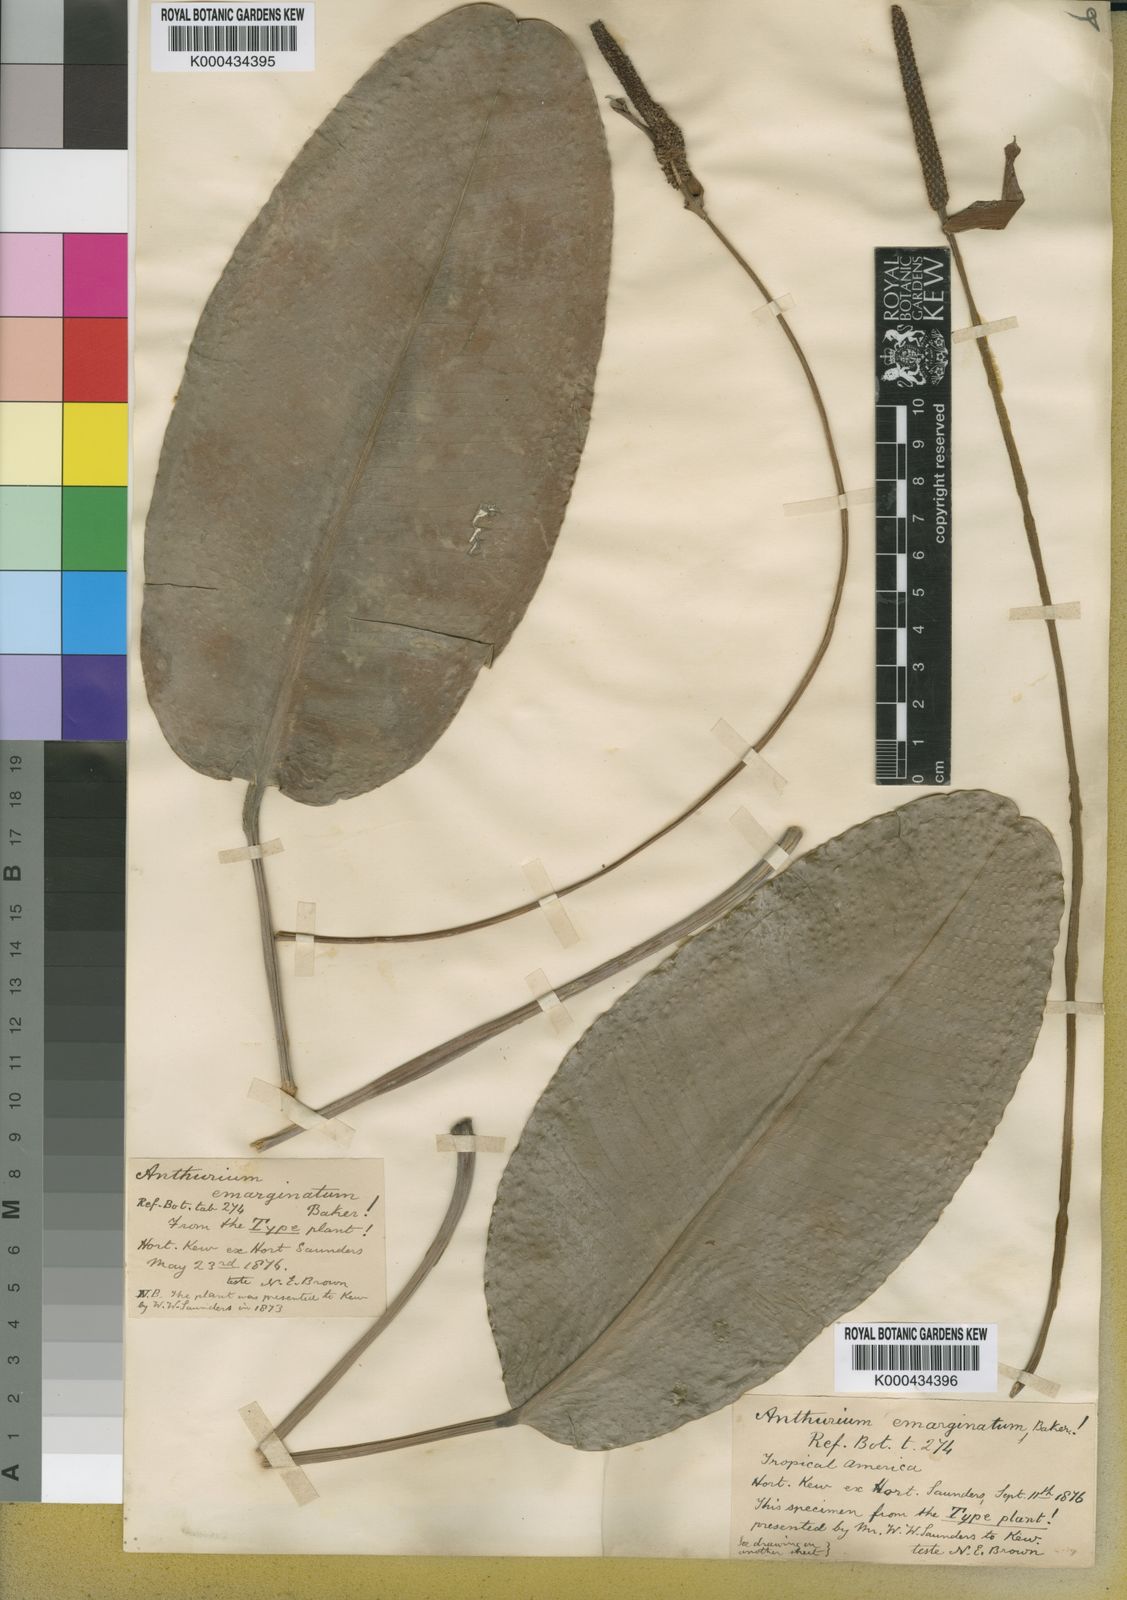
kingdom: Plantae
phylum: Tracheophyta
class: Liliopsida
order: Alismatales
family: Araceae
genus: Anthurium
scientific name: Anthurium emarginatum
